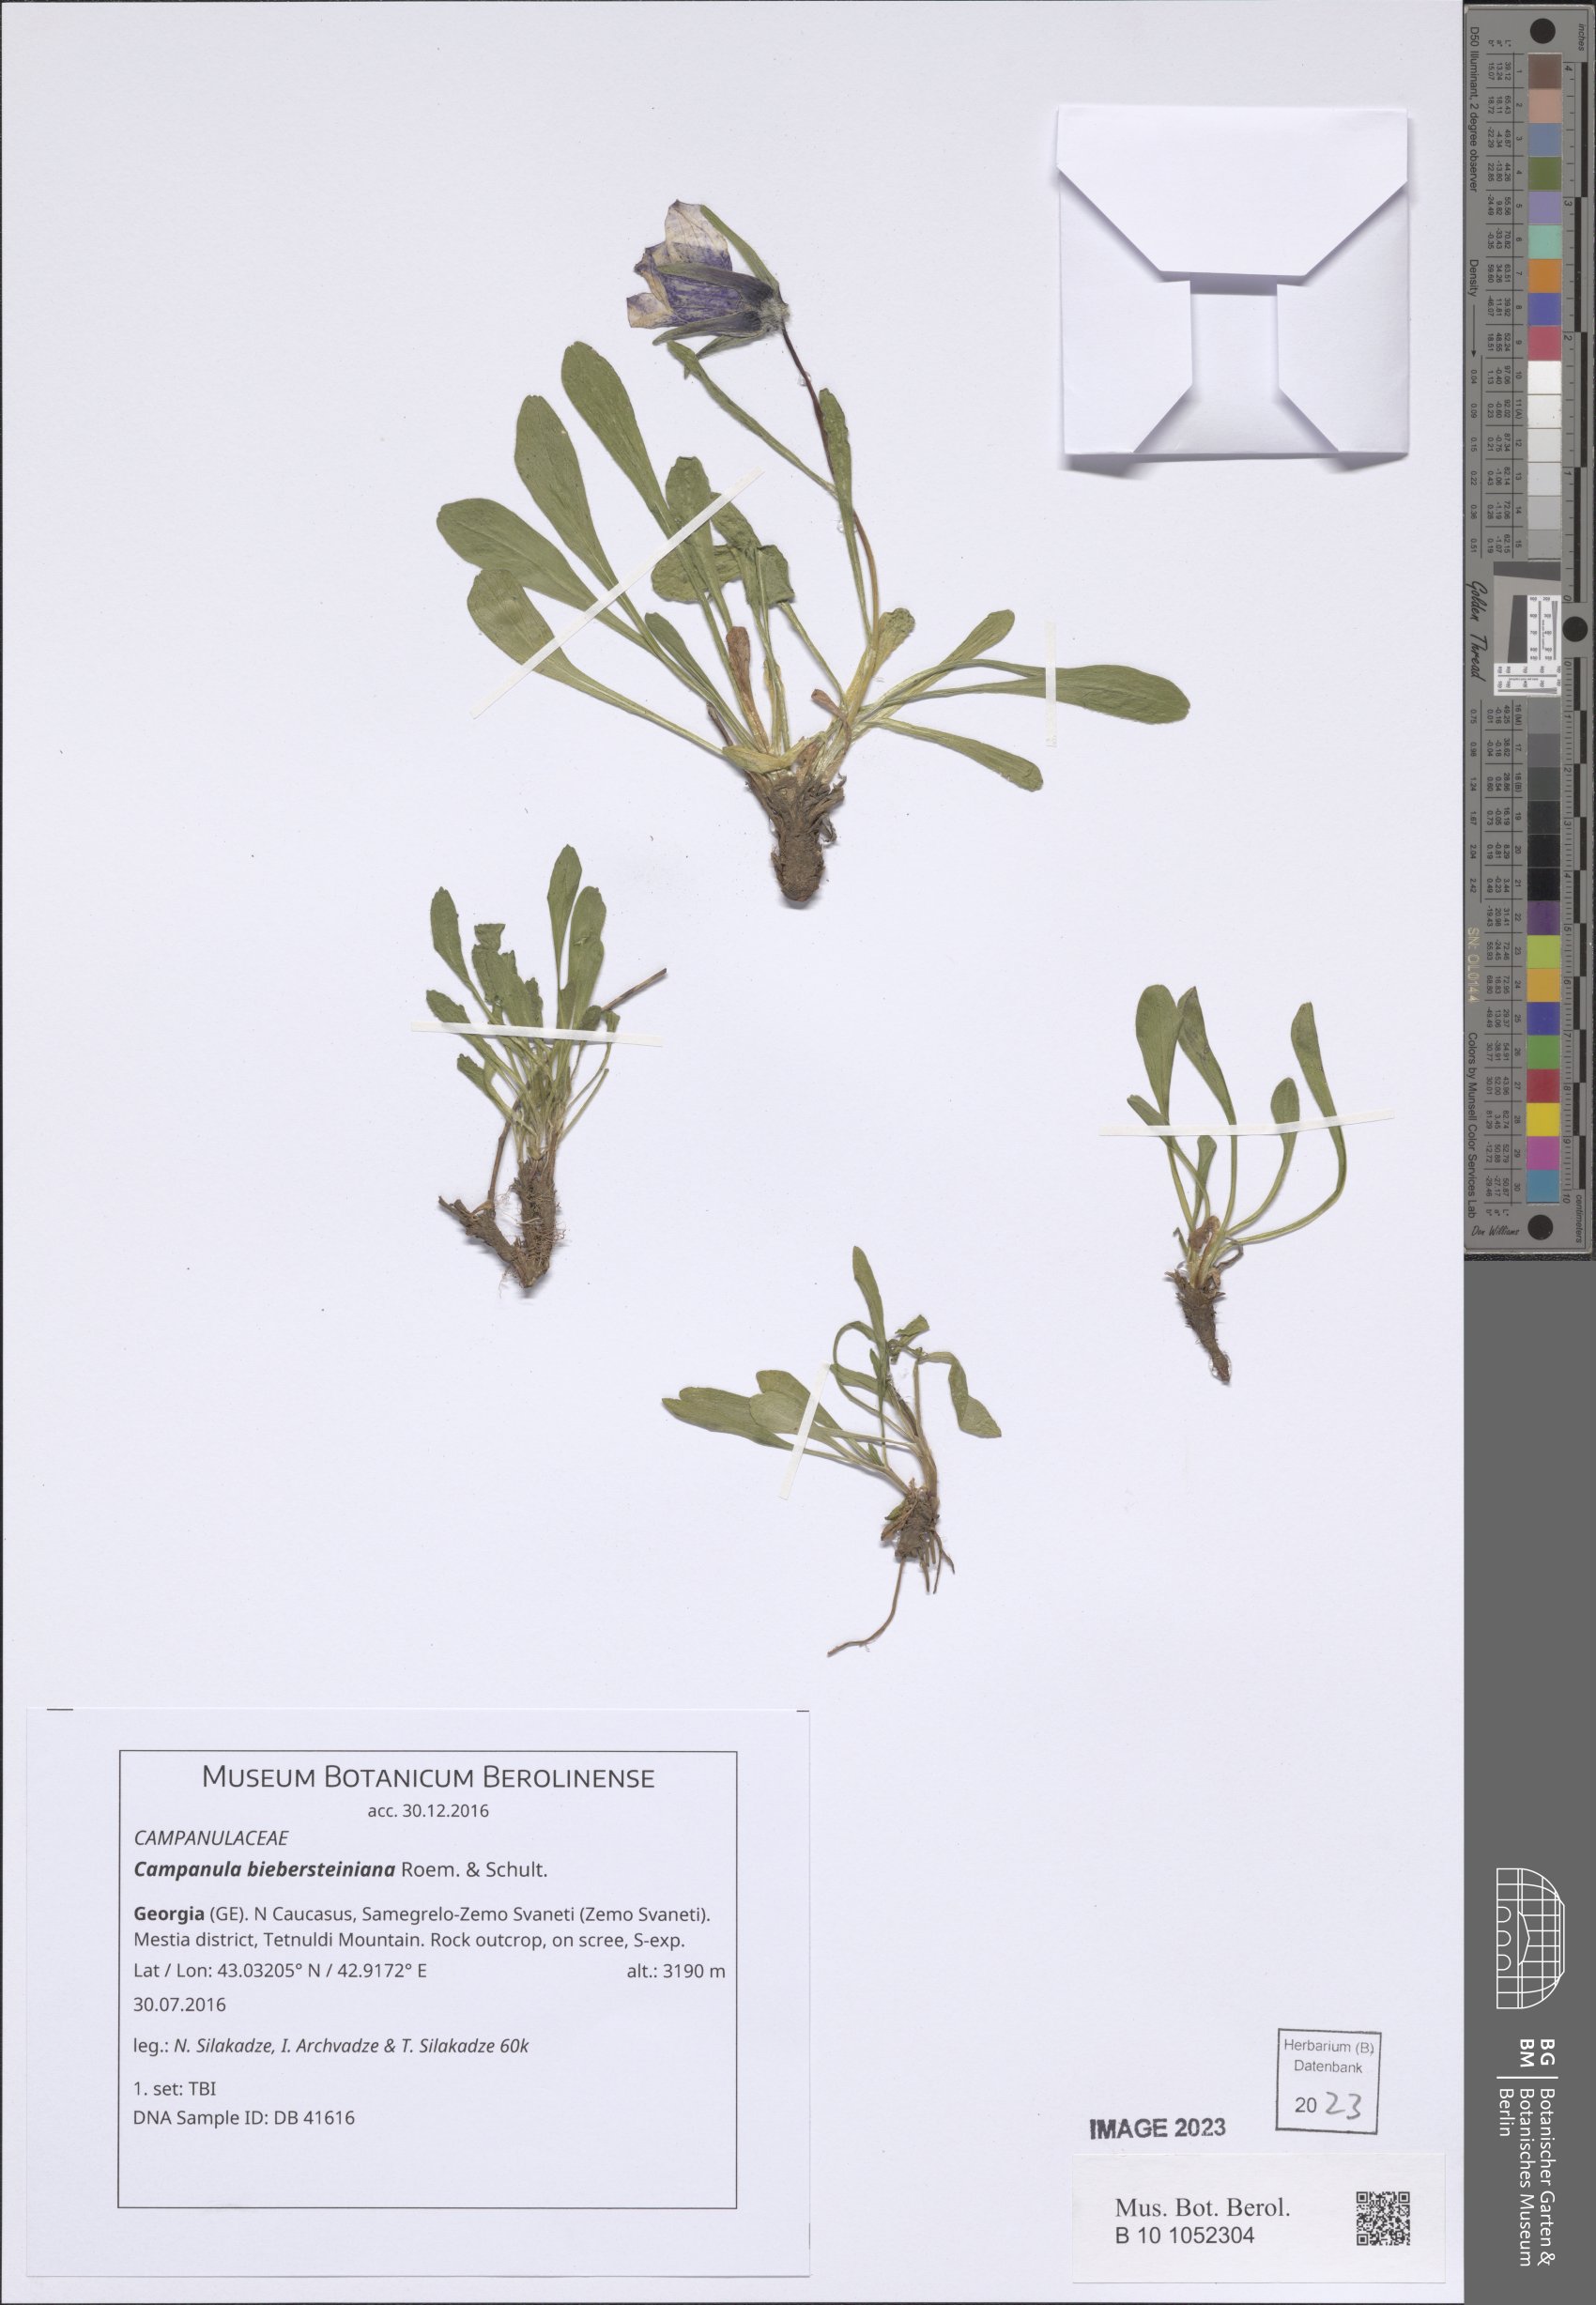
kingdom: Plantae
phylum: Tracheophyta
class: Magnoliopsida
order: Asterales
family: Campanulaceae
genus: Campanula
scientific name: Campanula tridentata
